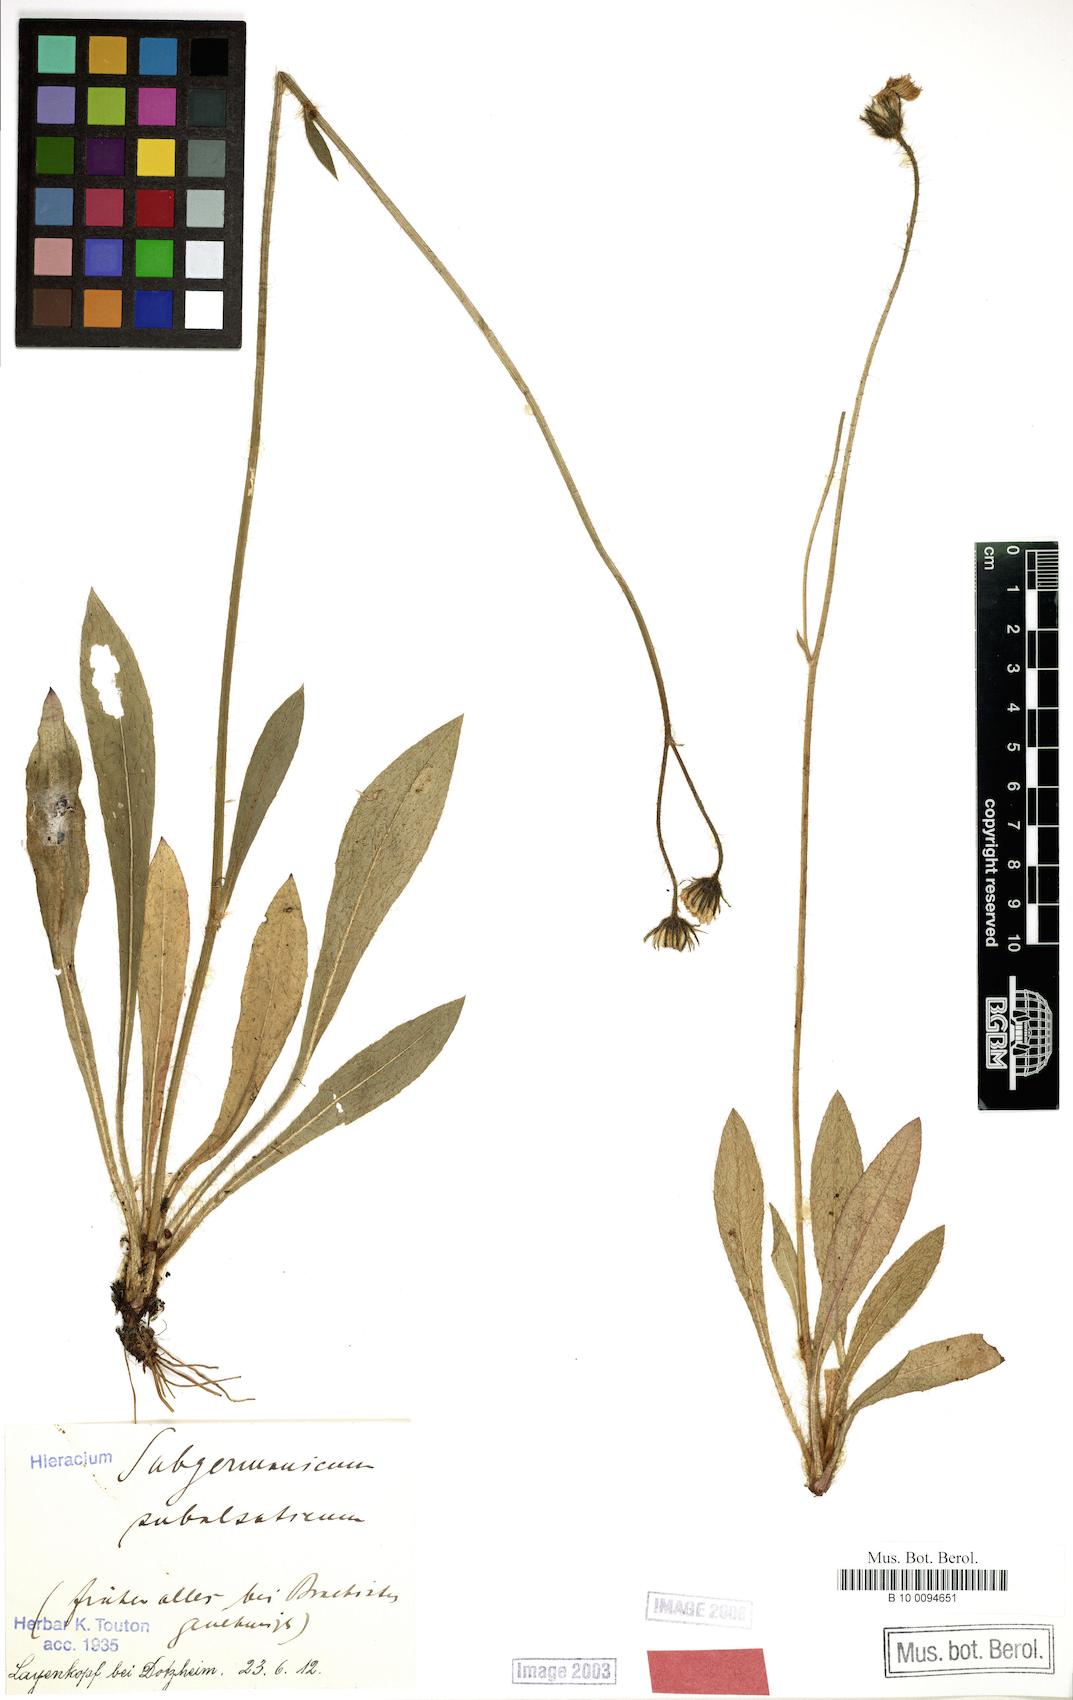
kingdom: Plantae
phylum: Tracheophyta
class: Magnoliopsida
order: Asterales
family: Asteraceae
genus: Pilosella
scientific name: Pilosella pilosellina
